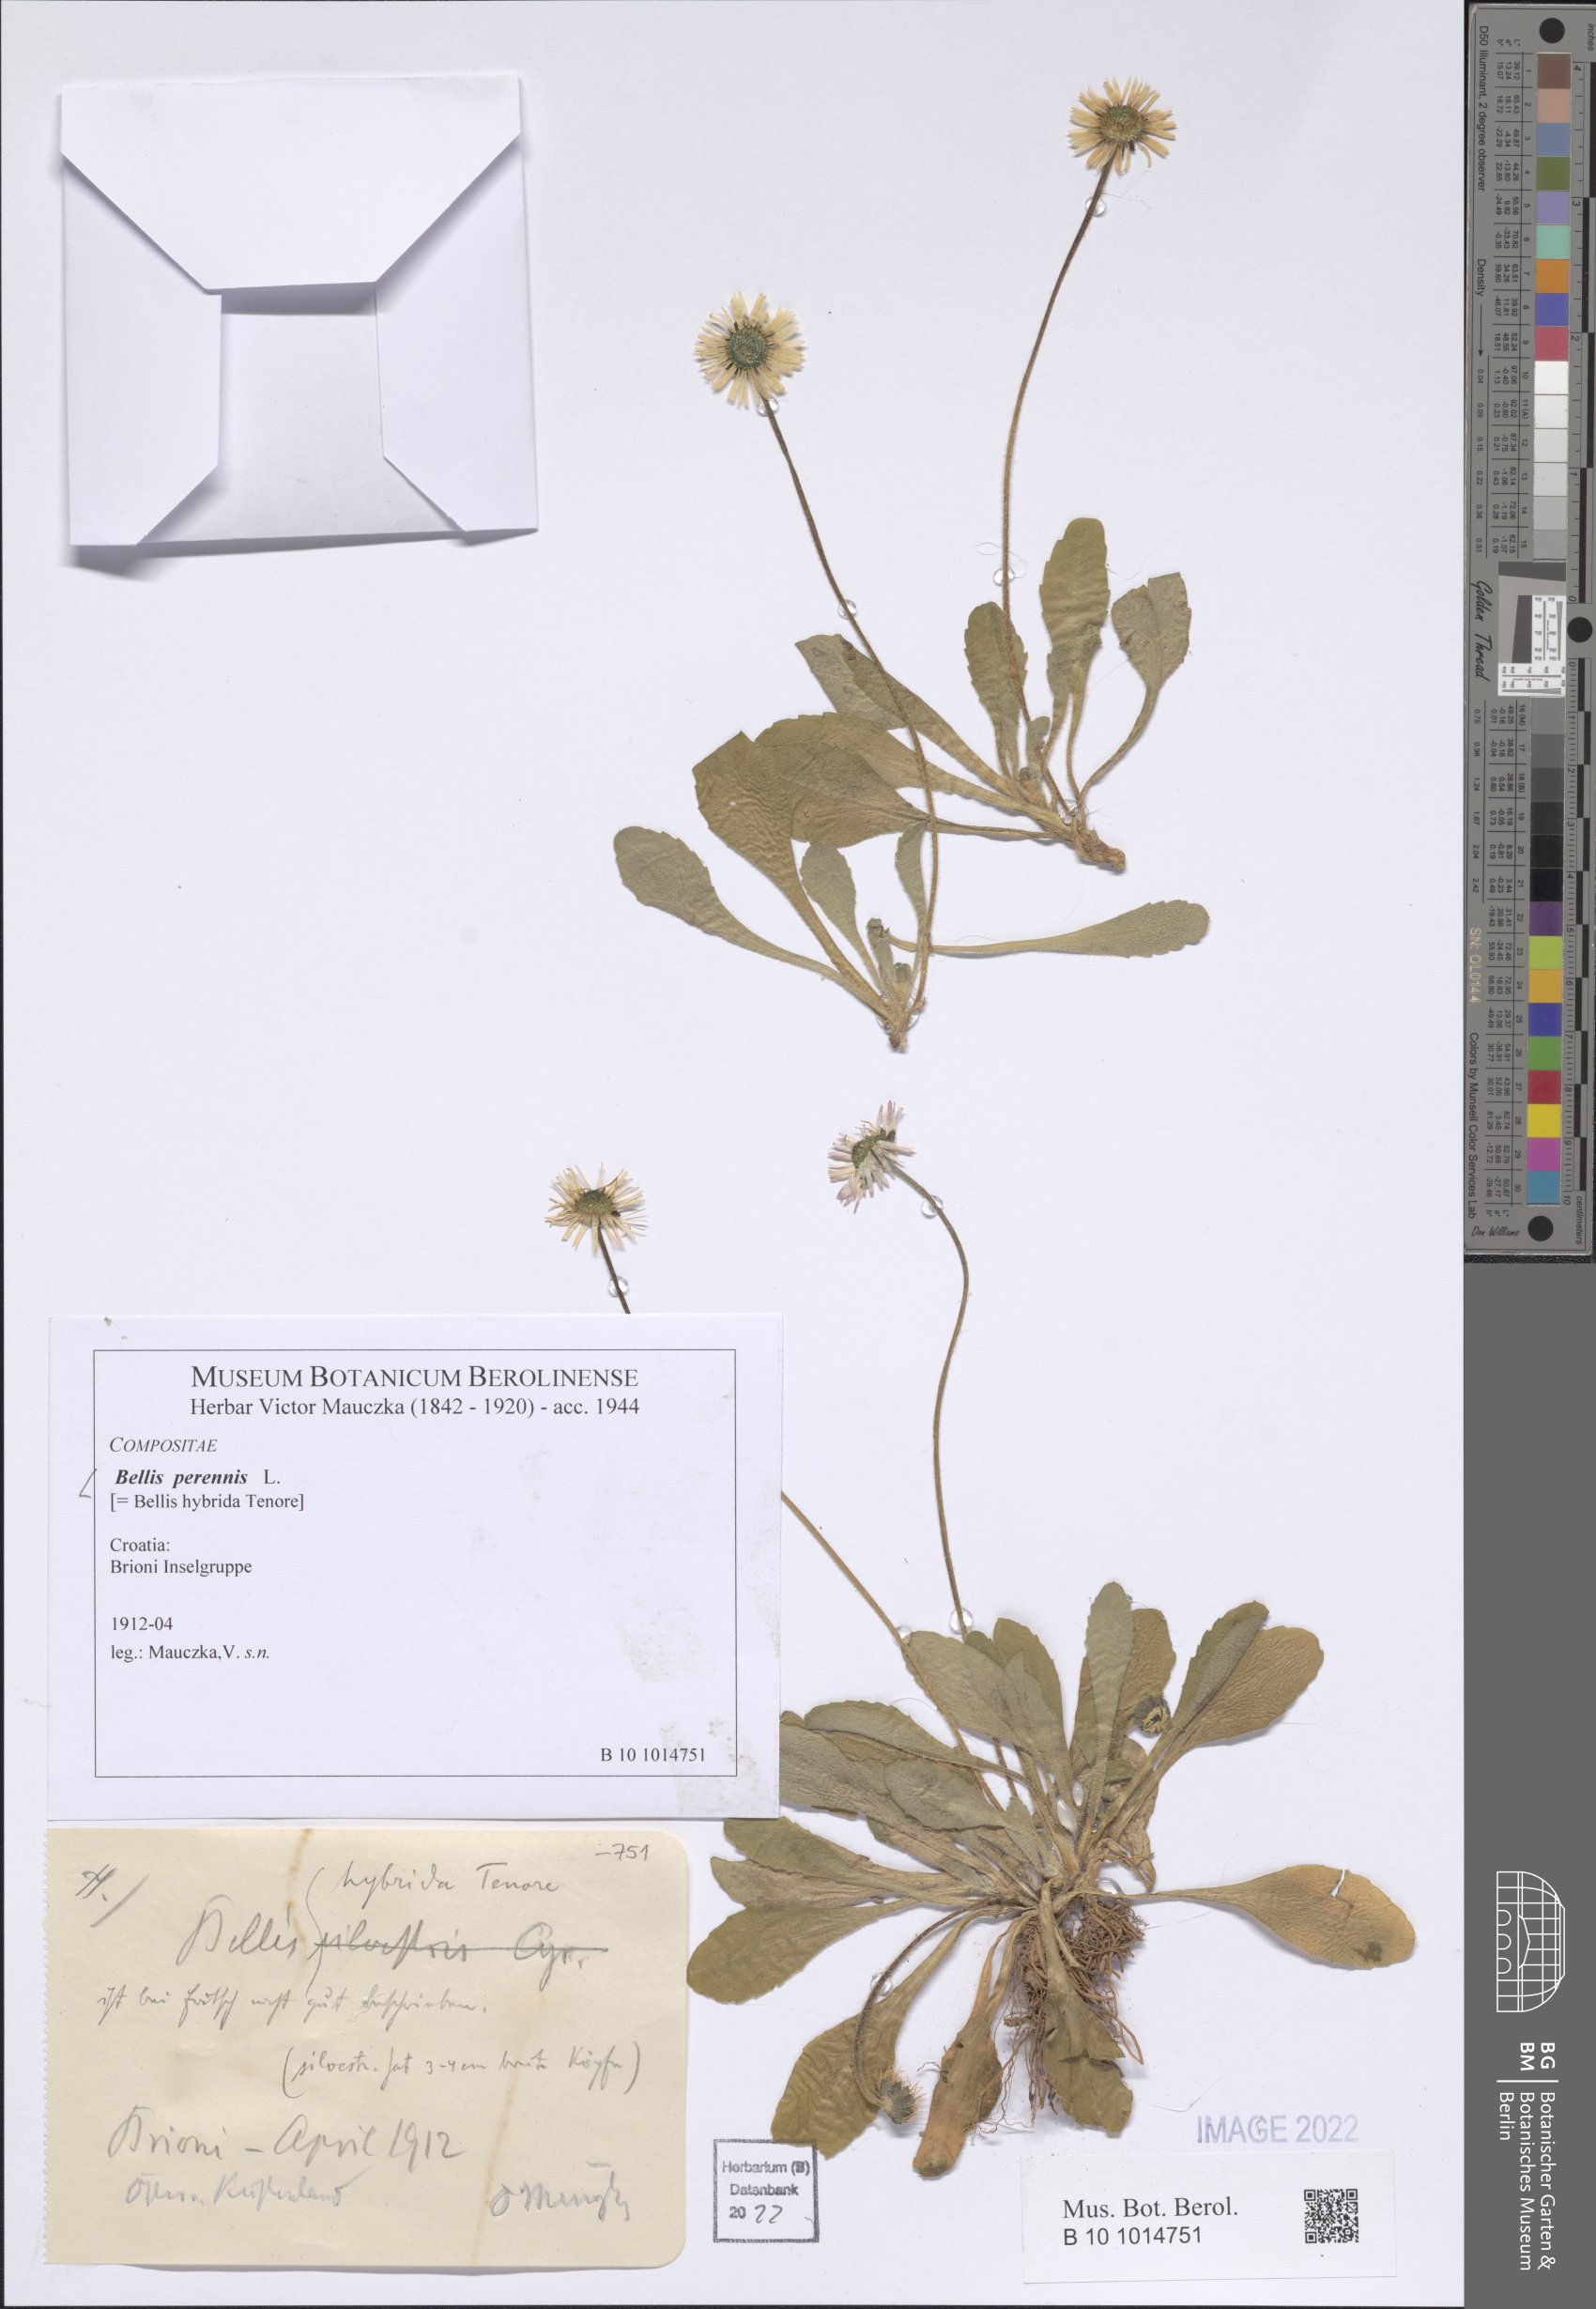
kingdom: Plantae
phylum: Tracheophyta
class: Magnoliopsida
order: Asterales
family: Asteraceae
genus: Bellis
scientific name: Bellis perennis
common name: Lawndaisy
